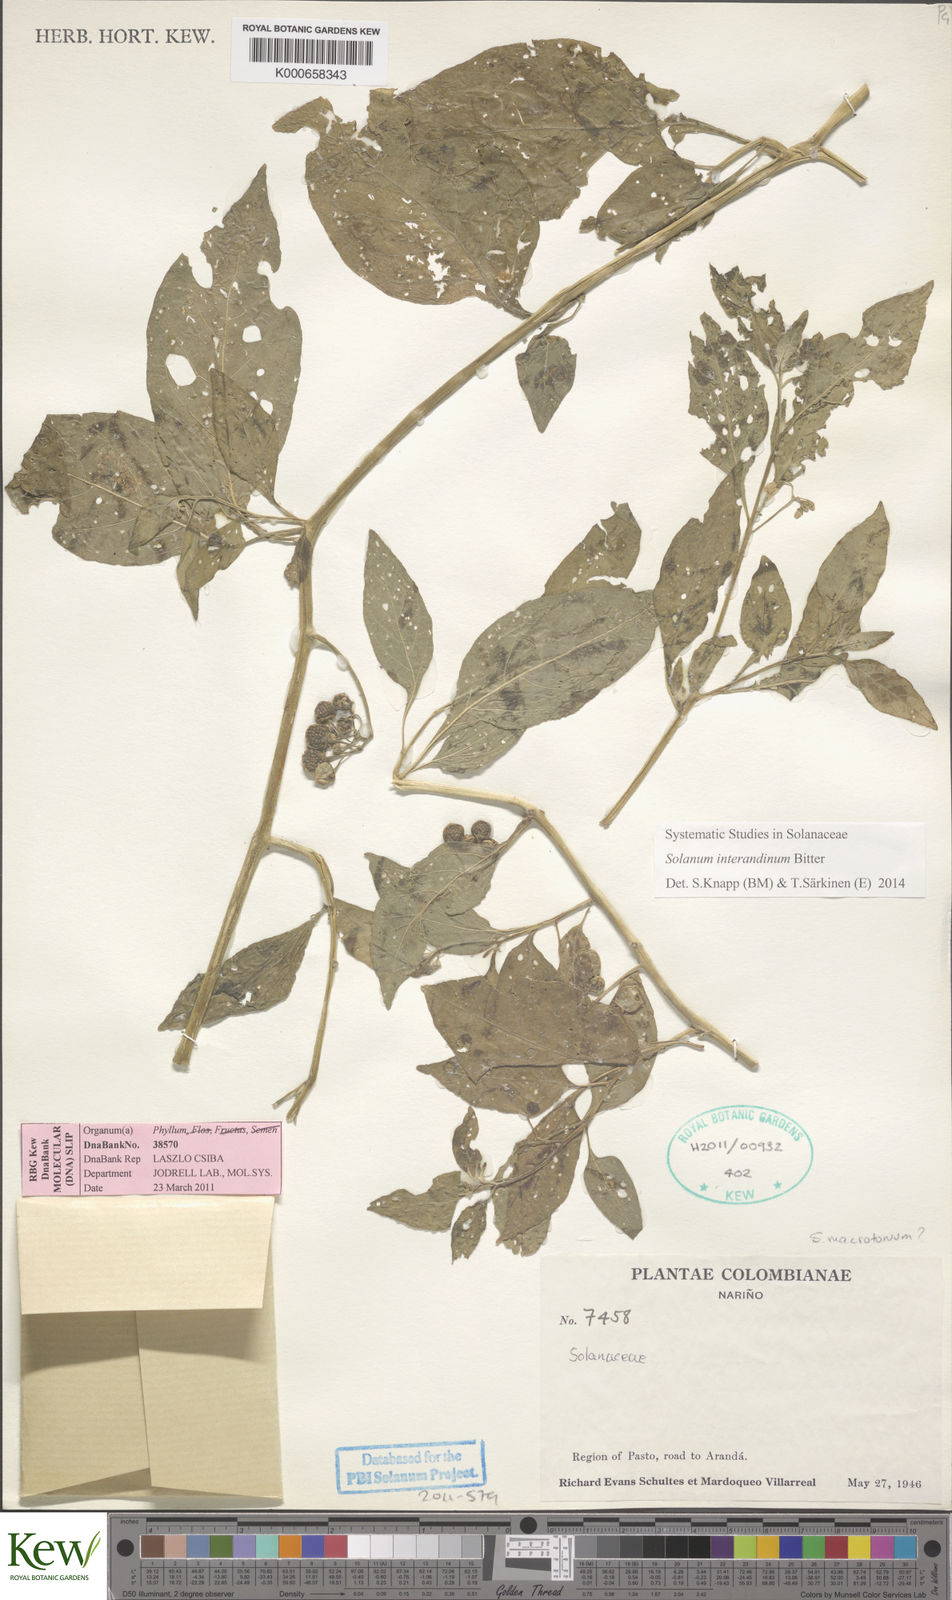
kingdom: Plantae
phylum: Tracheophyta
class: Magnoliopsida
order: Solanales
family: Solanaceae
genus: Solanum
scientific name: Solanum interandinum
